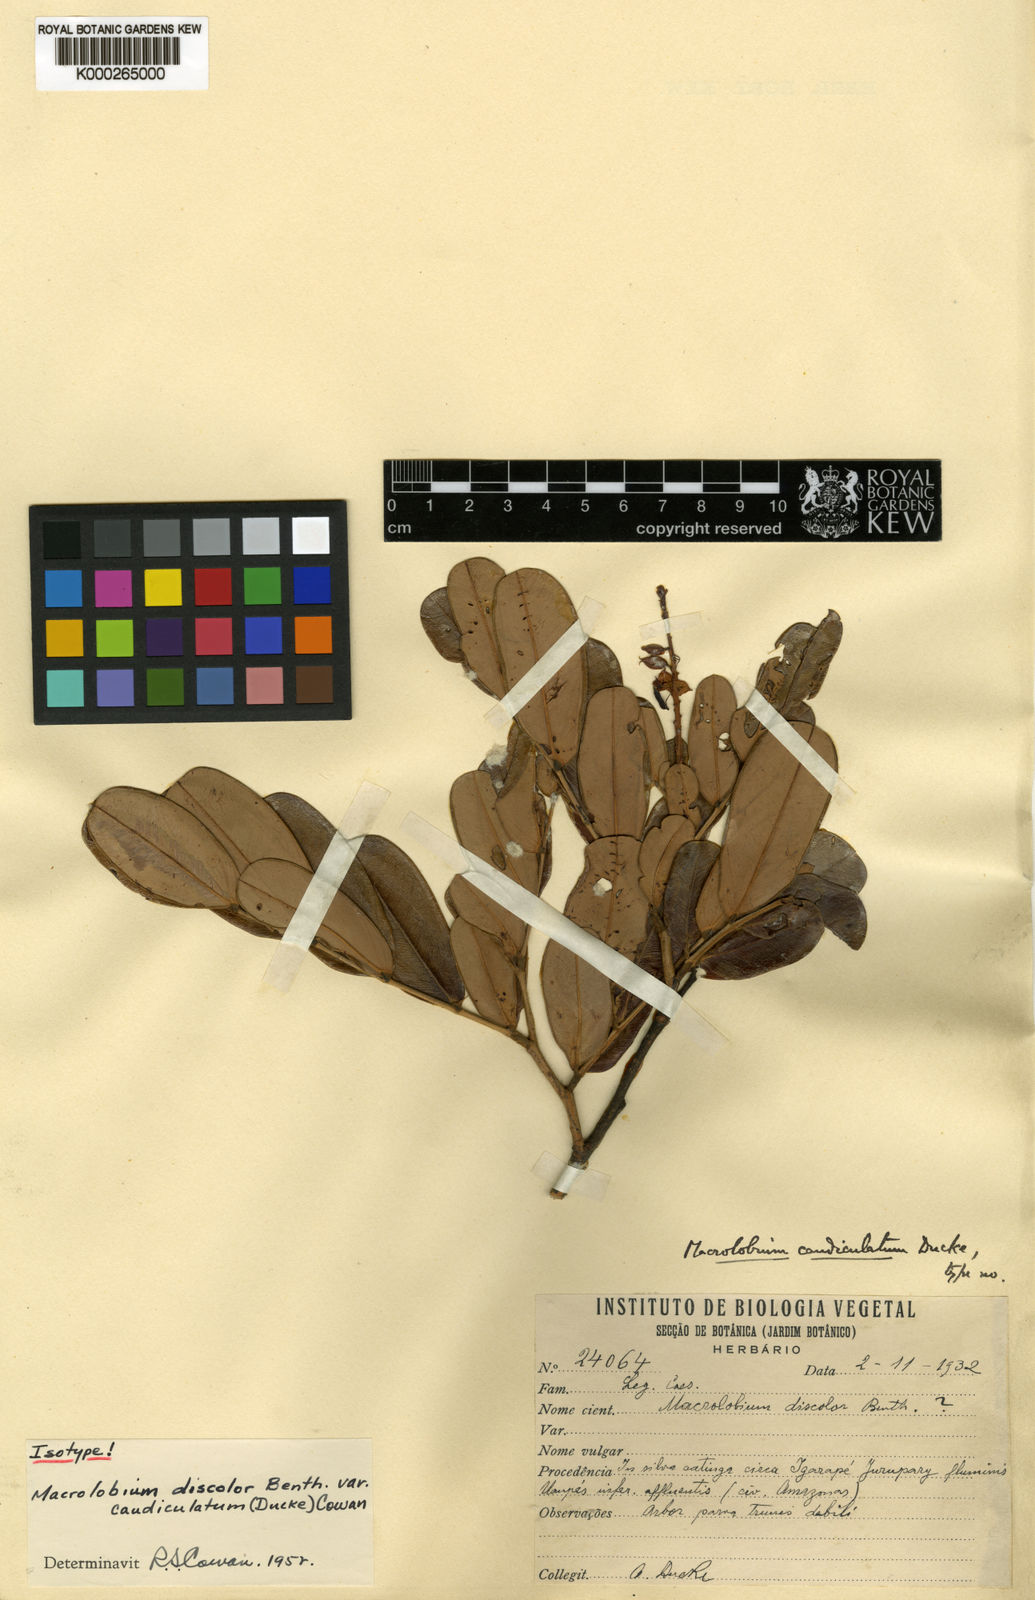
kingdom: Plantae
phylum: Tracheophyta
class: Magnoliopsida
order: Fabales
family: Fabaceae
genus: Macrolobium
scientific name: Macrolobium discolor
